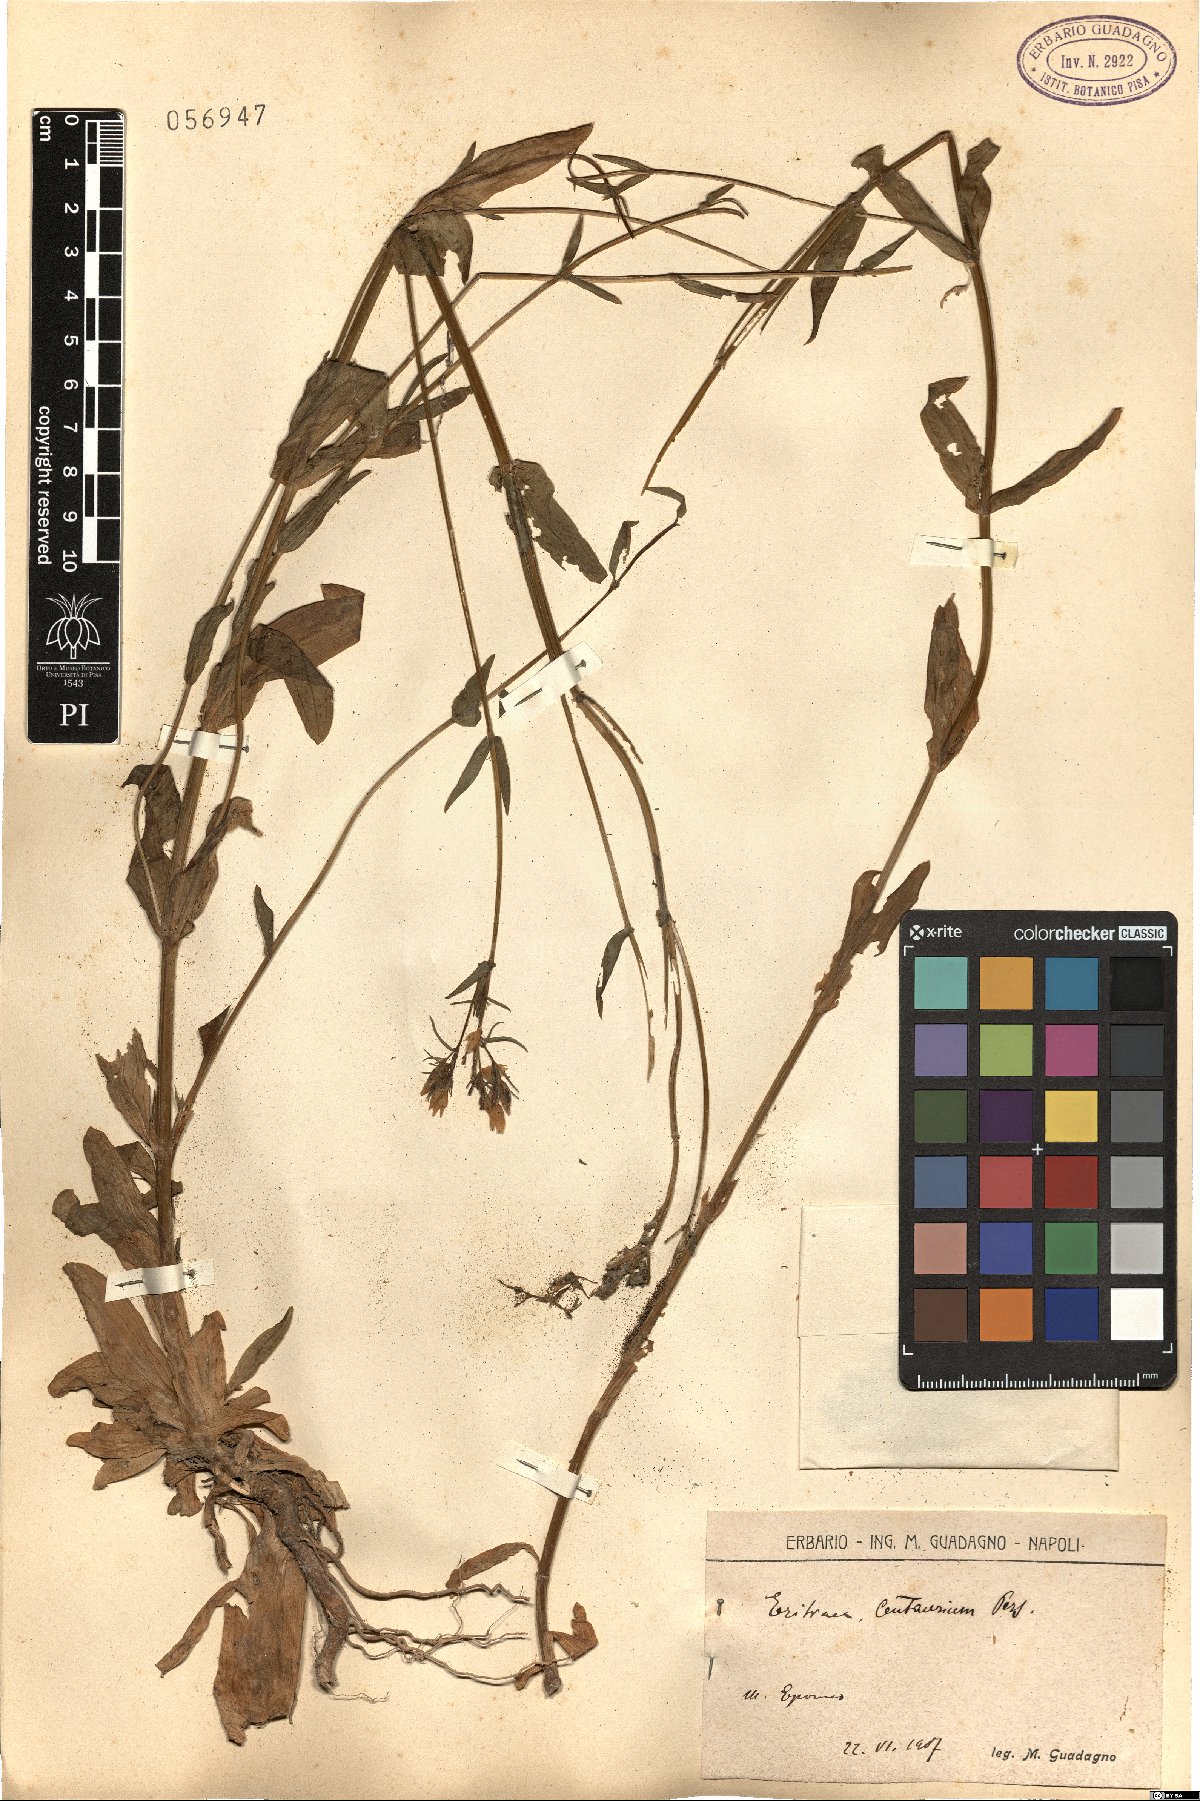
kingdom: Plantae
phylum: Tracheophyta
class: Magnoliopsida
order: Gentianales
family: Gentianaceae
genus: Centaurium
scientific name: Centaurium erythraea
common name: Common centaury
